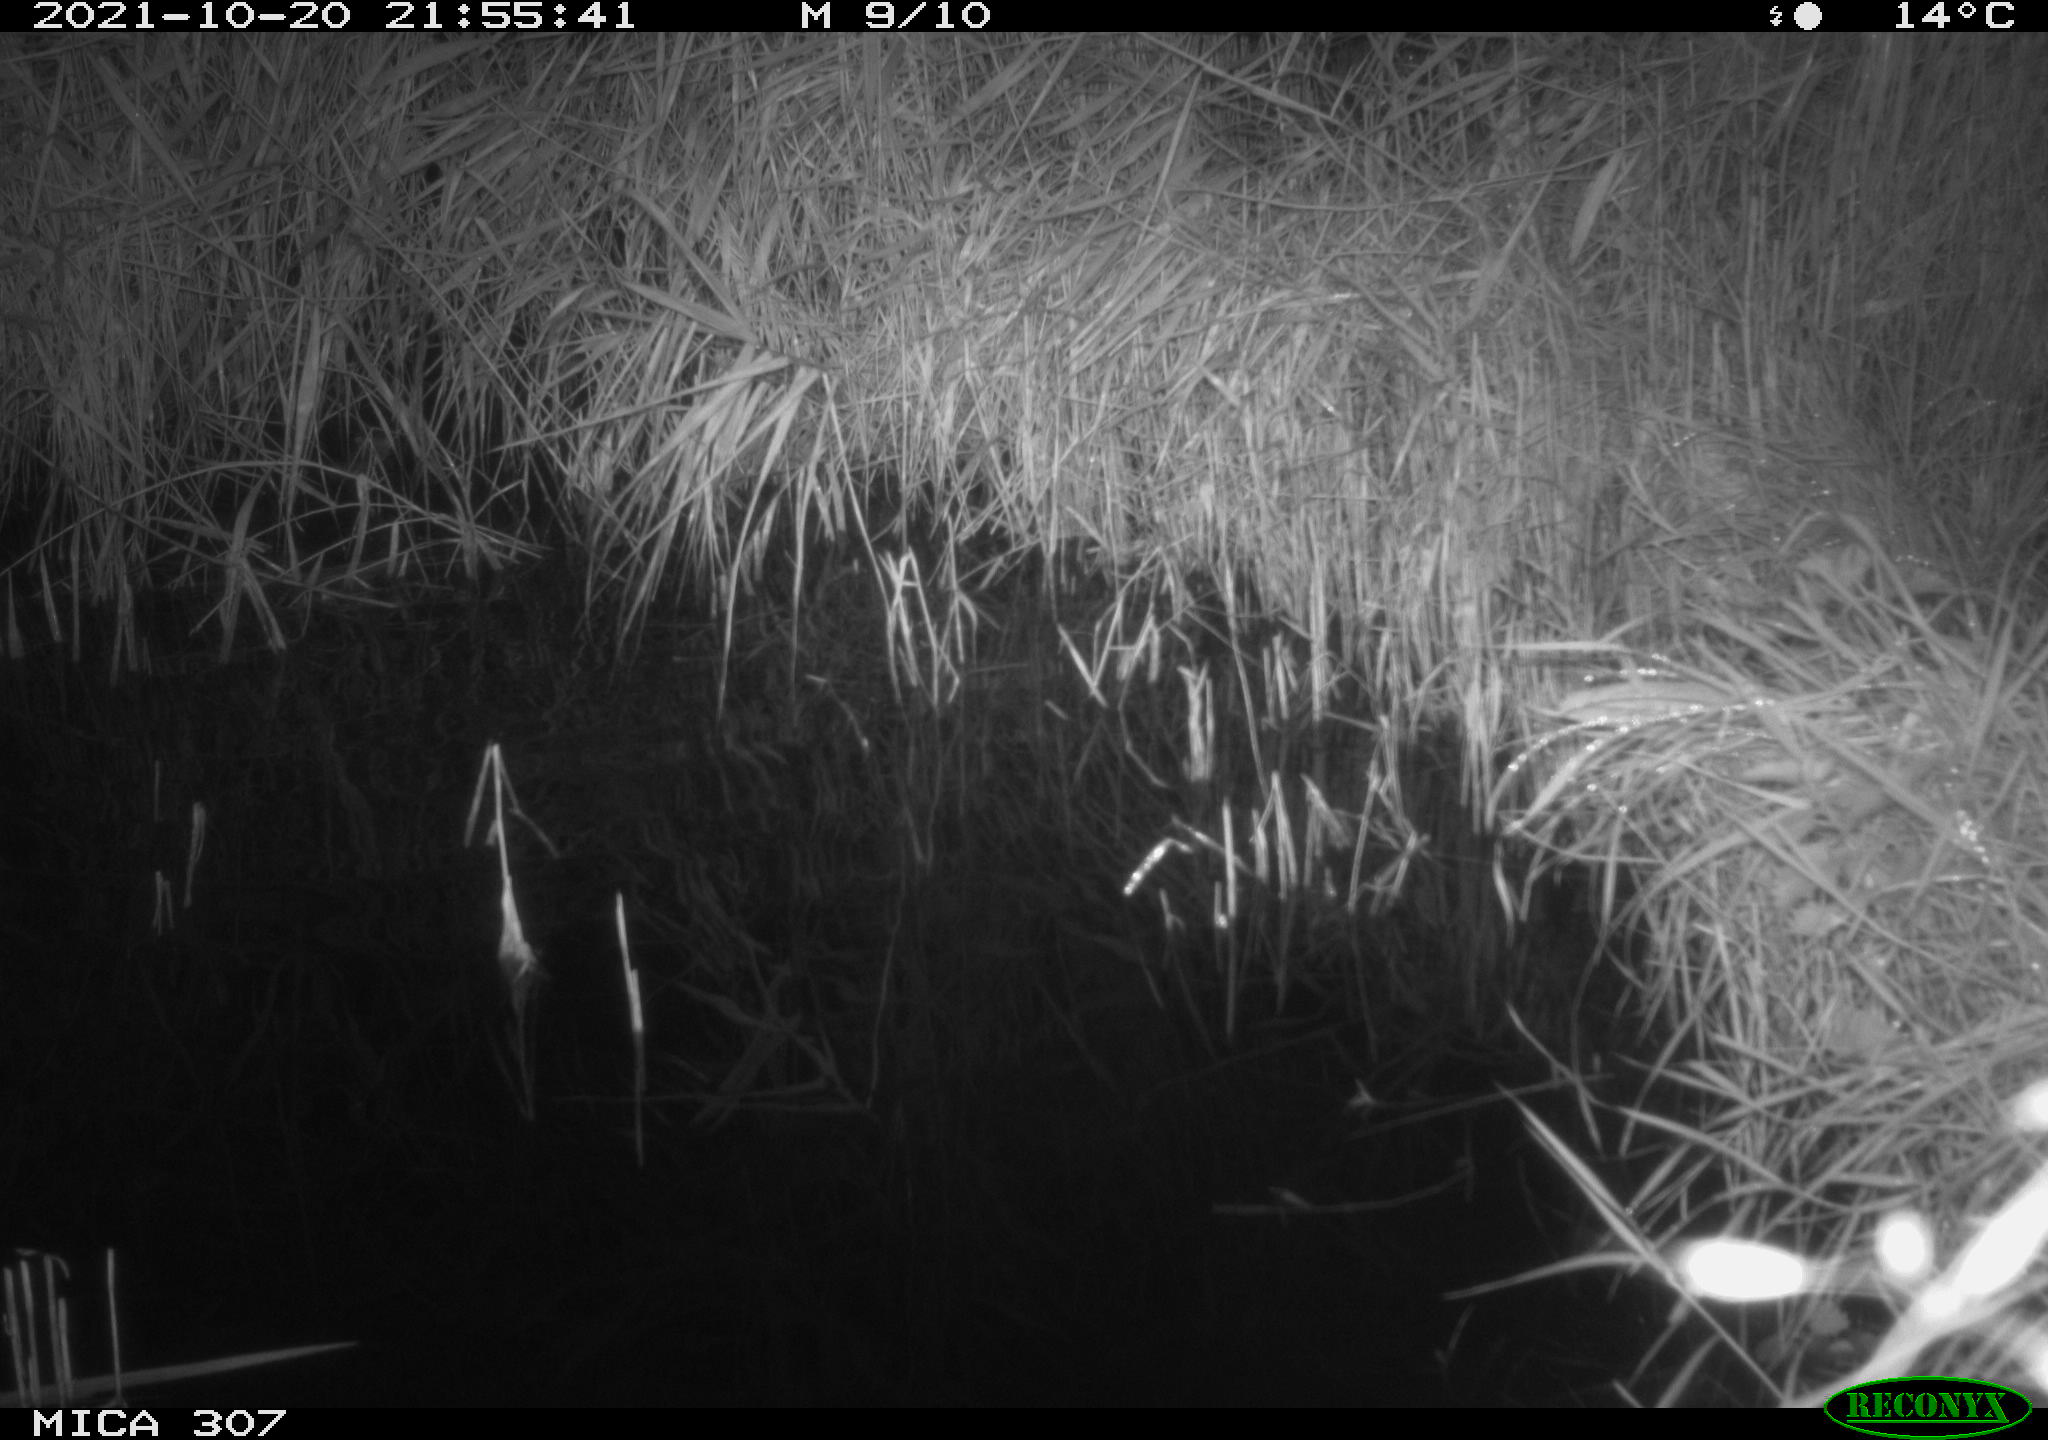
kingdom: Animalia
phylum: Chordata
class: Mammalia
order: Rodentia
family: Muridae
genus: Rattus
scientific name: Rattus norvegicus
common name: Brown rat
